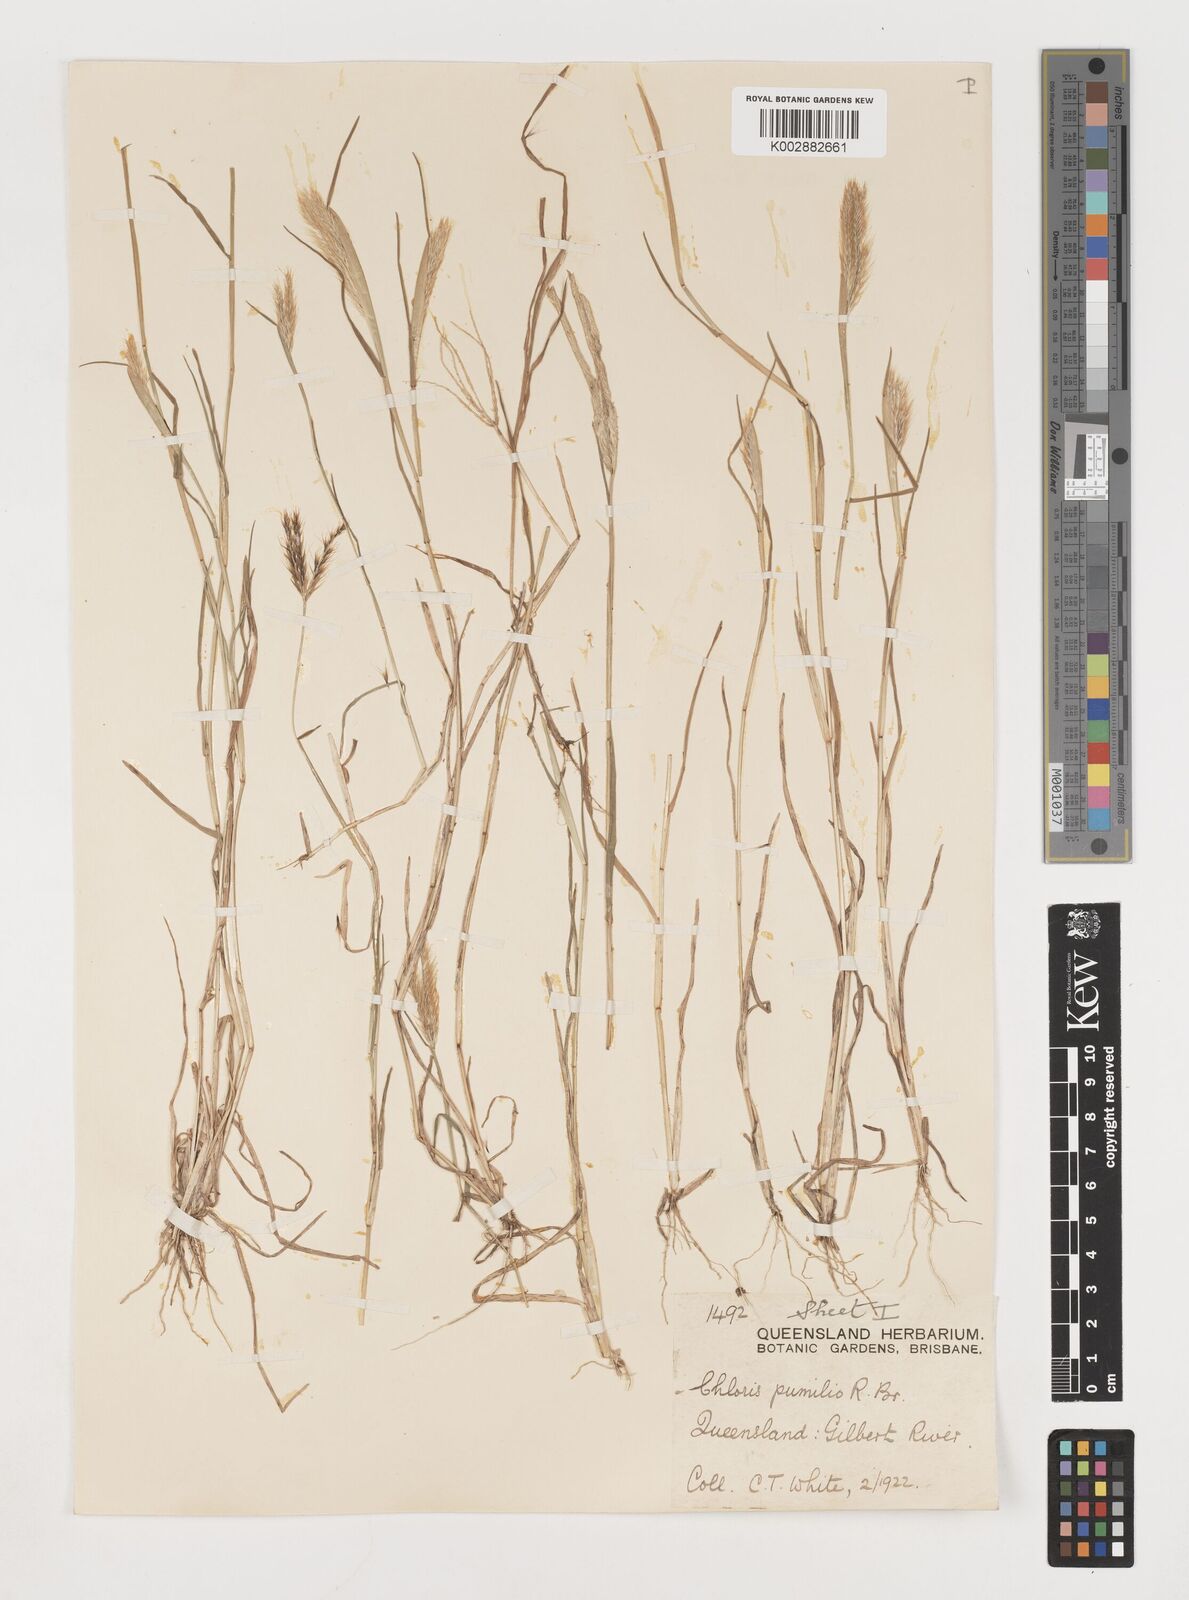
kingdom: Plantae
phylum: Tracheophyta
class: Liliopsida
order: Poales
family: Poaceae
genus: Chloris
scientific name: Chloris lobata
